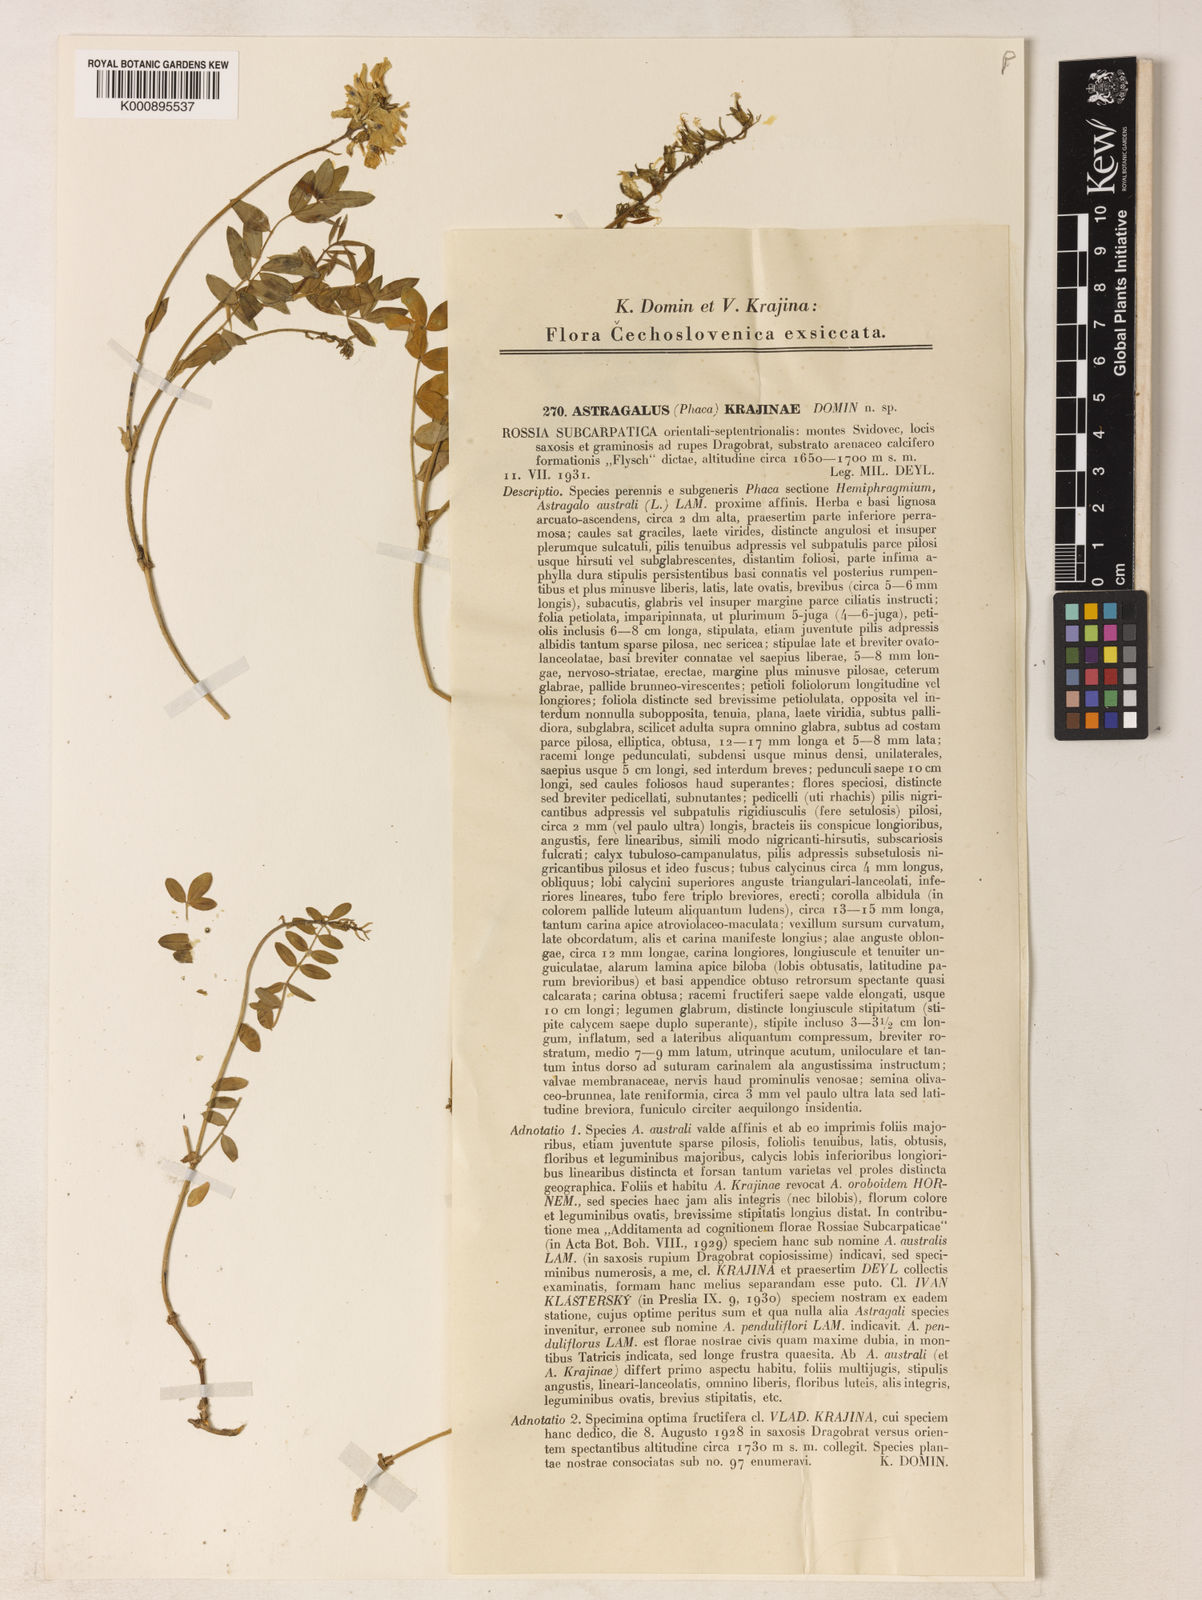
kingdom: Plantae
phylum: Tracheophyta
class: Magnoliopsida
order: Fabales
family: Fabaceae
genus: Astragalus
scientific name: Astragalus australis
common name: Indian milk-vetch
